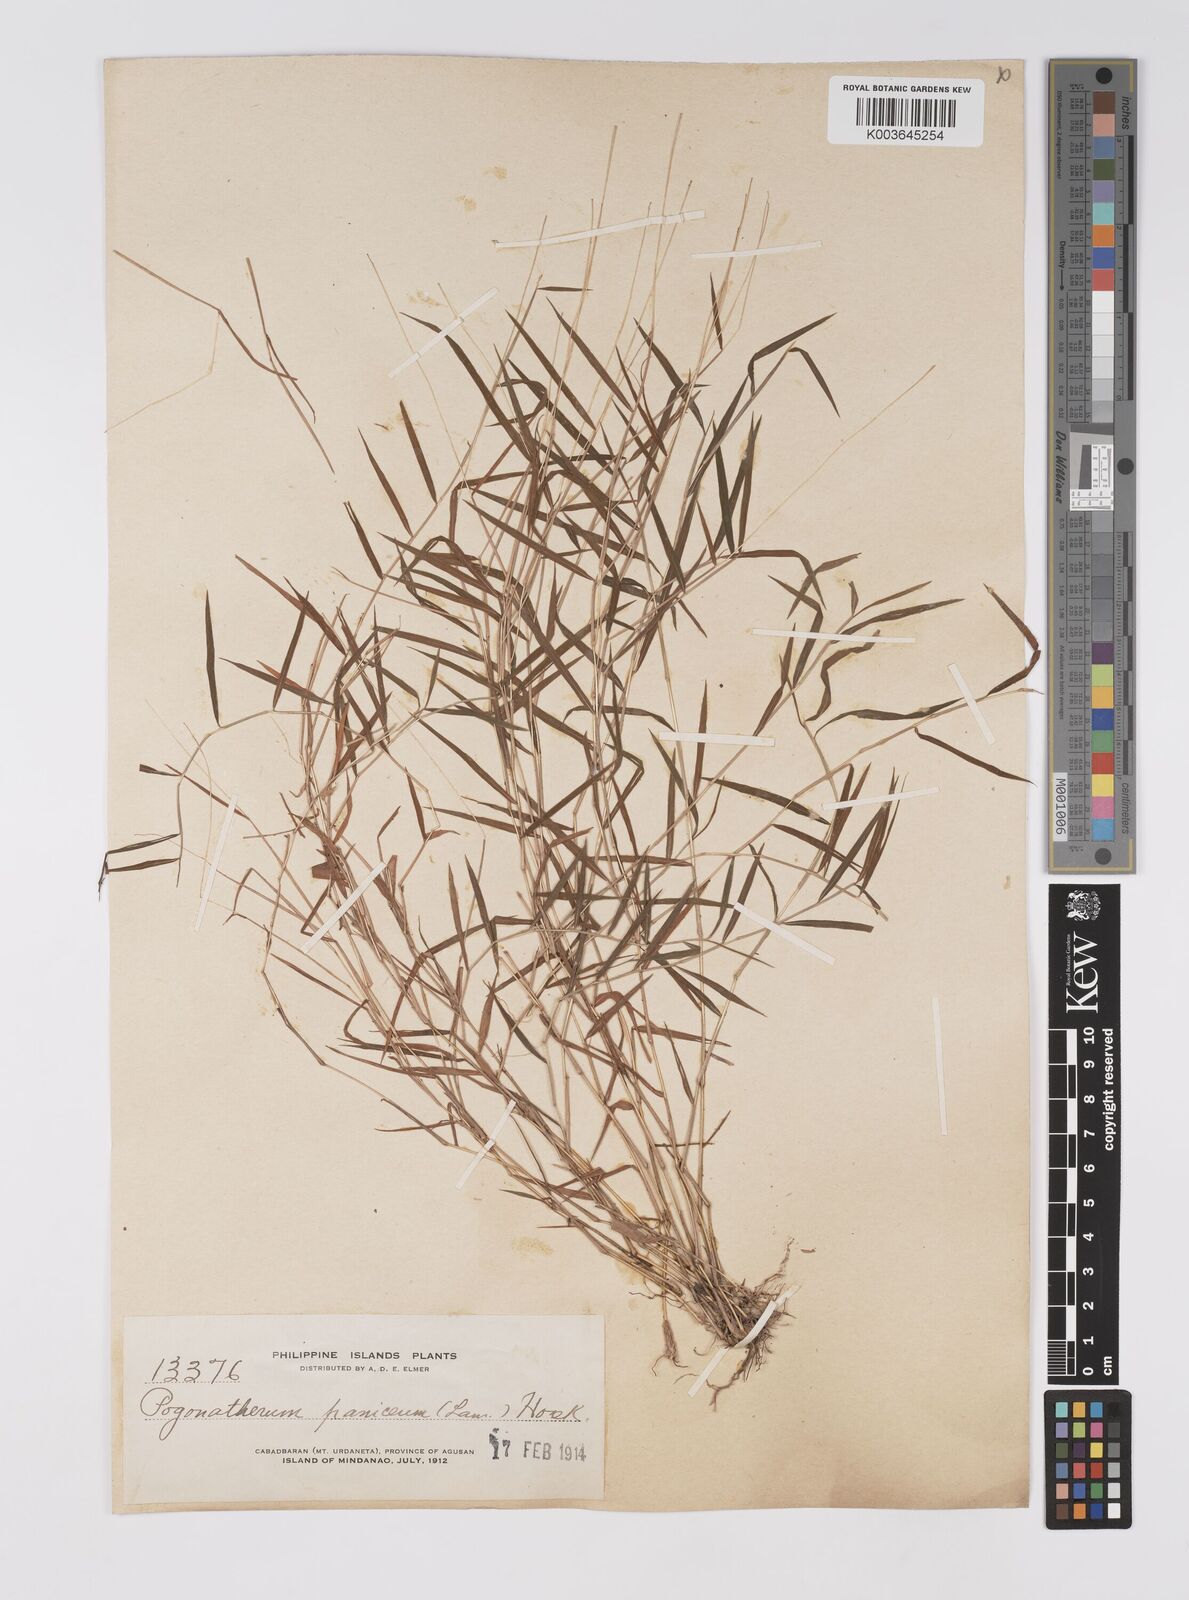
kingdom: Plantae
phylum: Tracheophyta
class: Liliopsida
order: Poales
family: Poaceae
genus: Pogonatherum
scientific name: Pogonatherum paniceum
